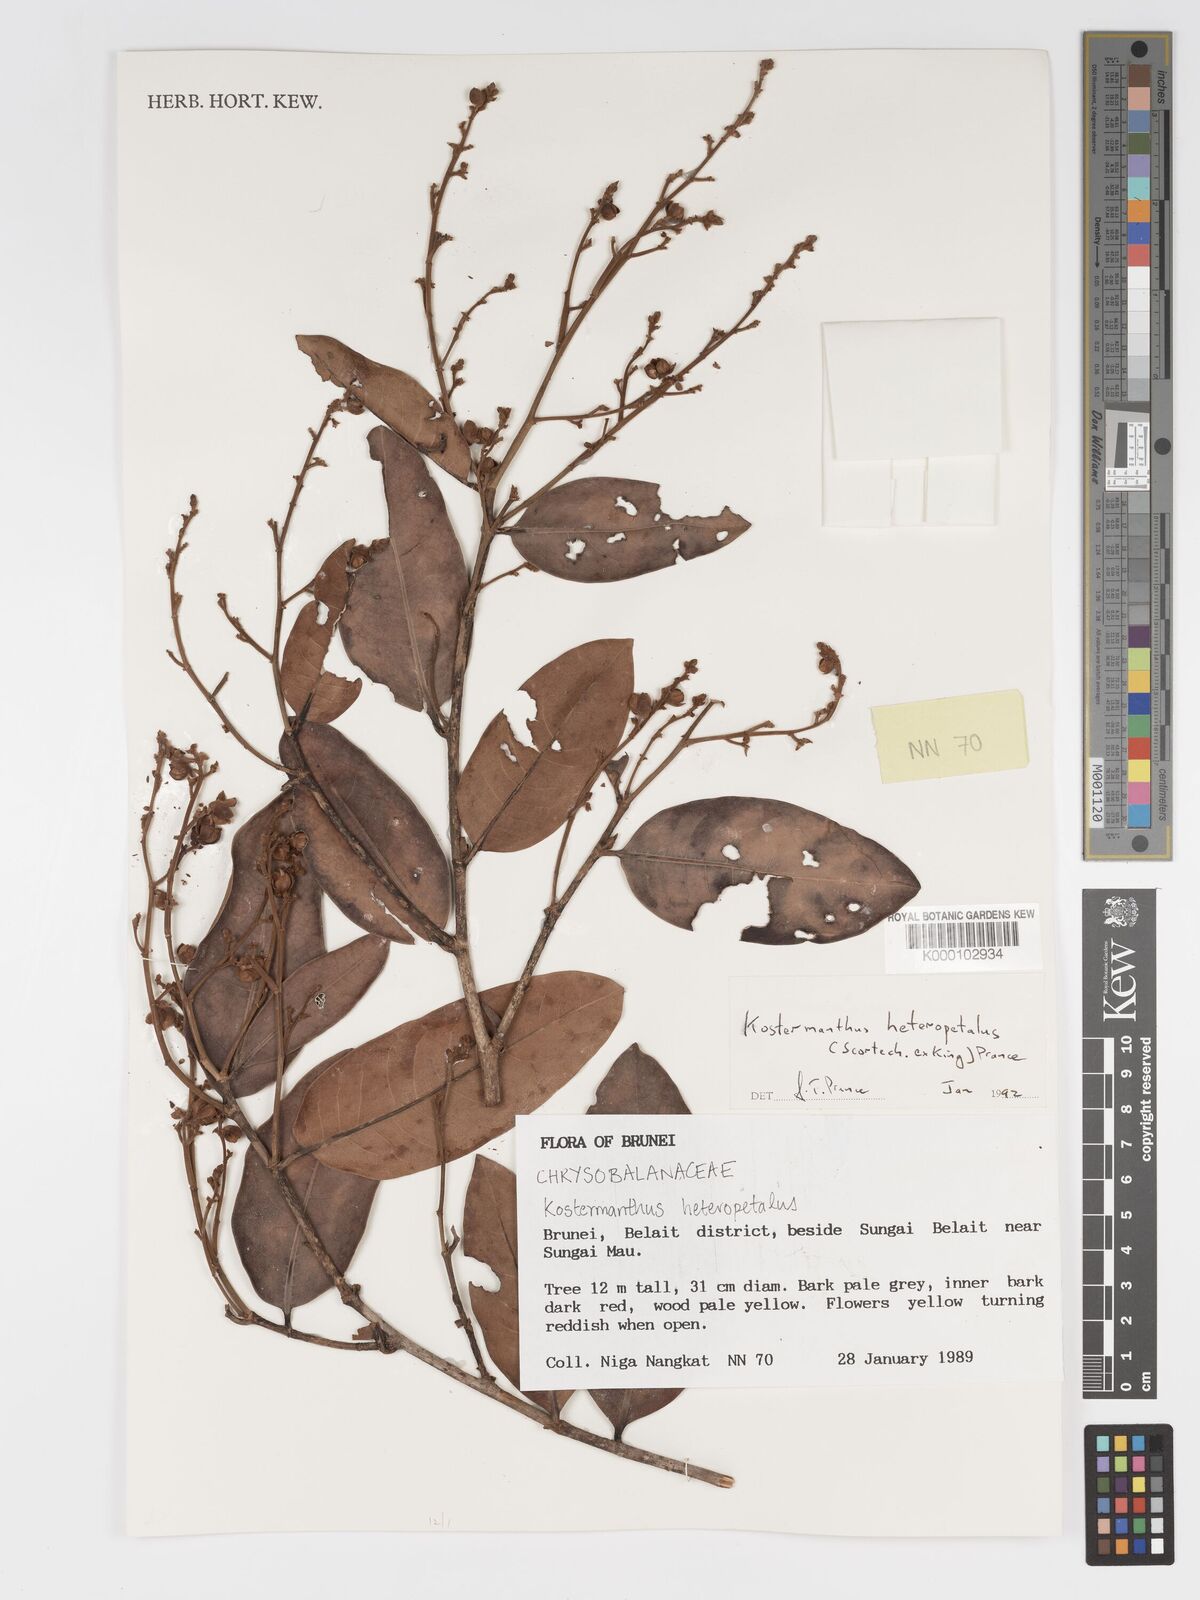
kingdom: Plantae
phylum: Tracheophyta
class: Magnoliopsida
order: Malpighiales
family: Chrysobalanaceae
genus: Kostermanthus
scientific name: Kostermanthus heteropetalus
